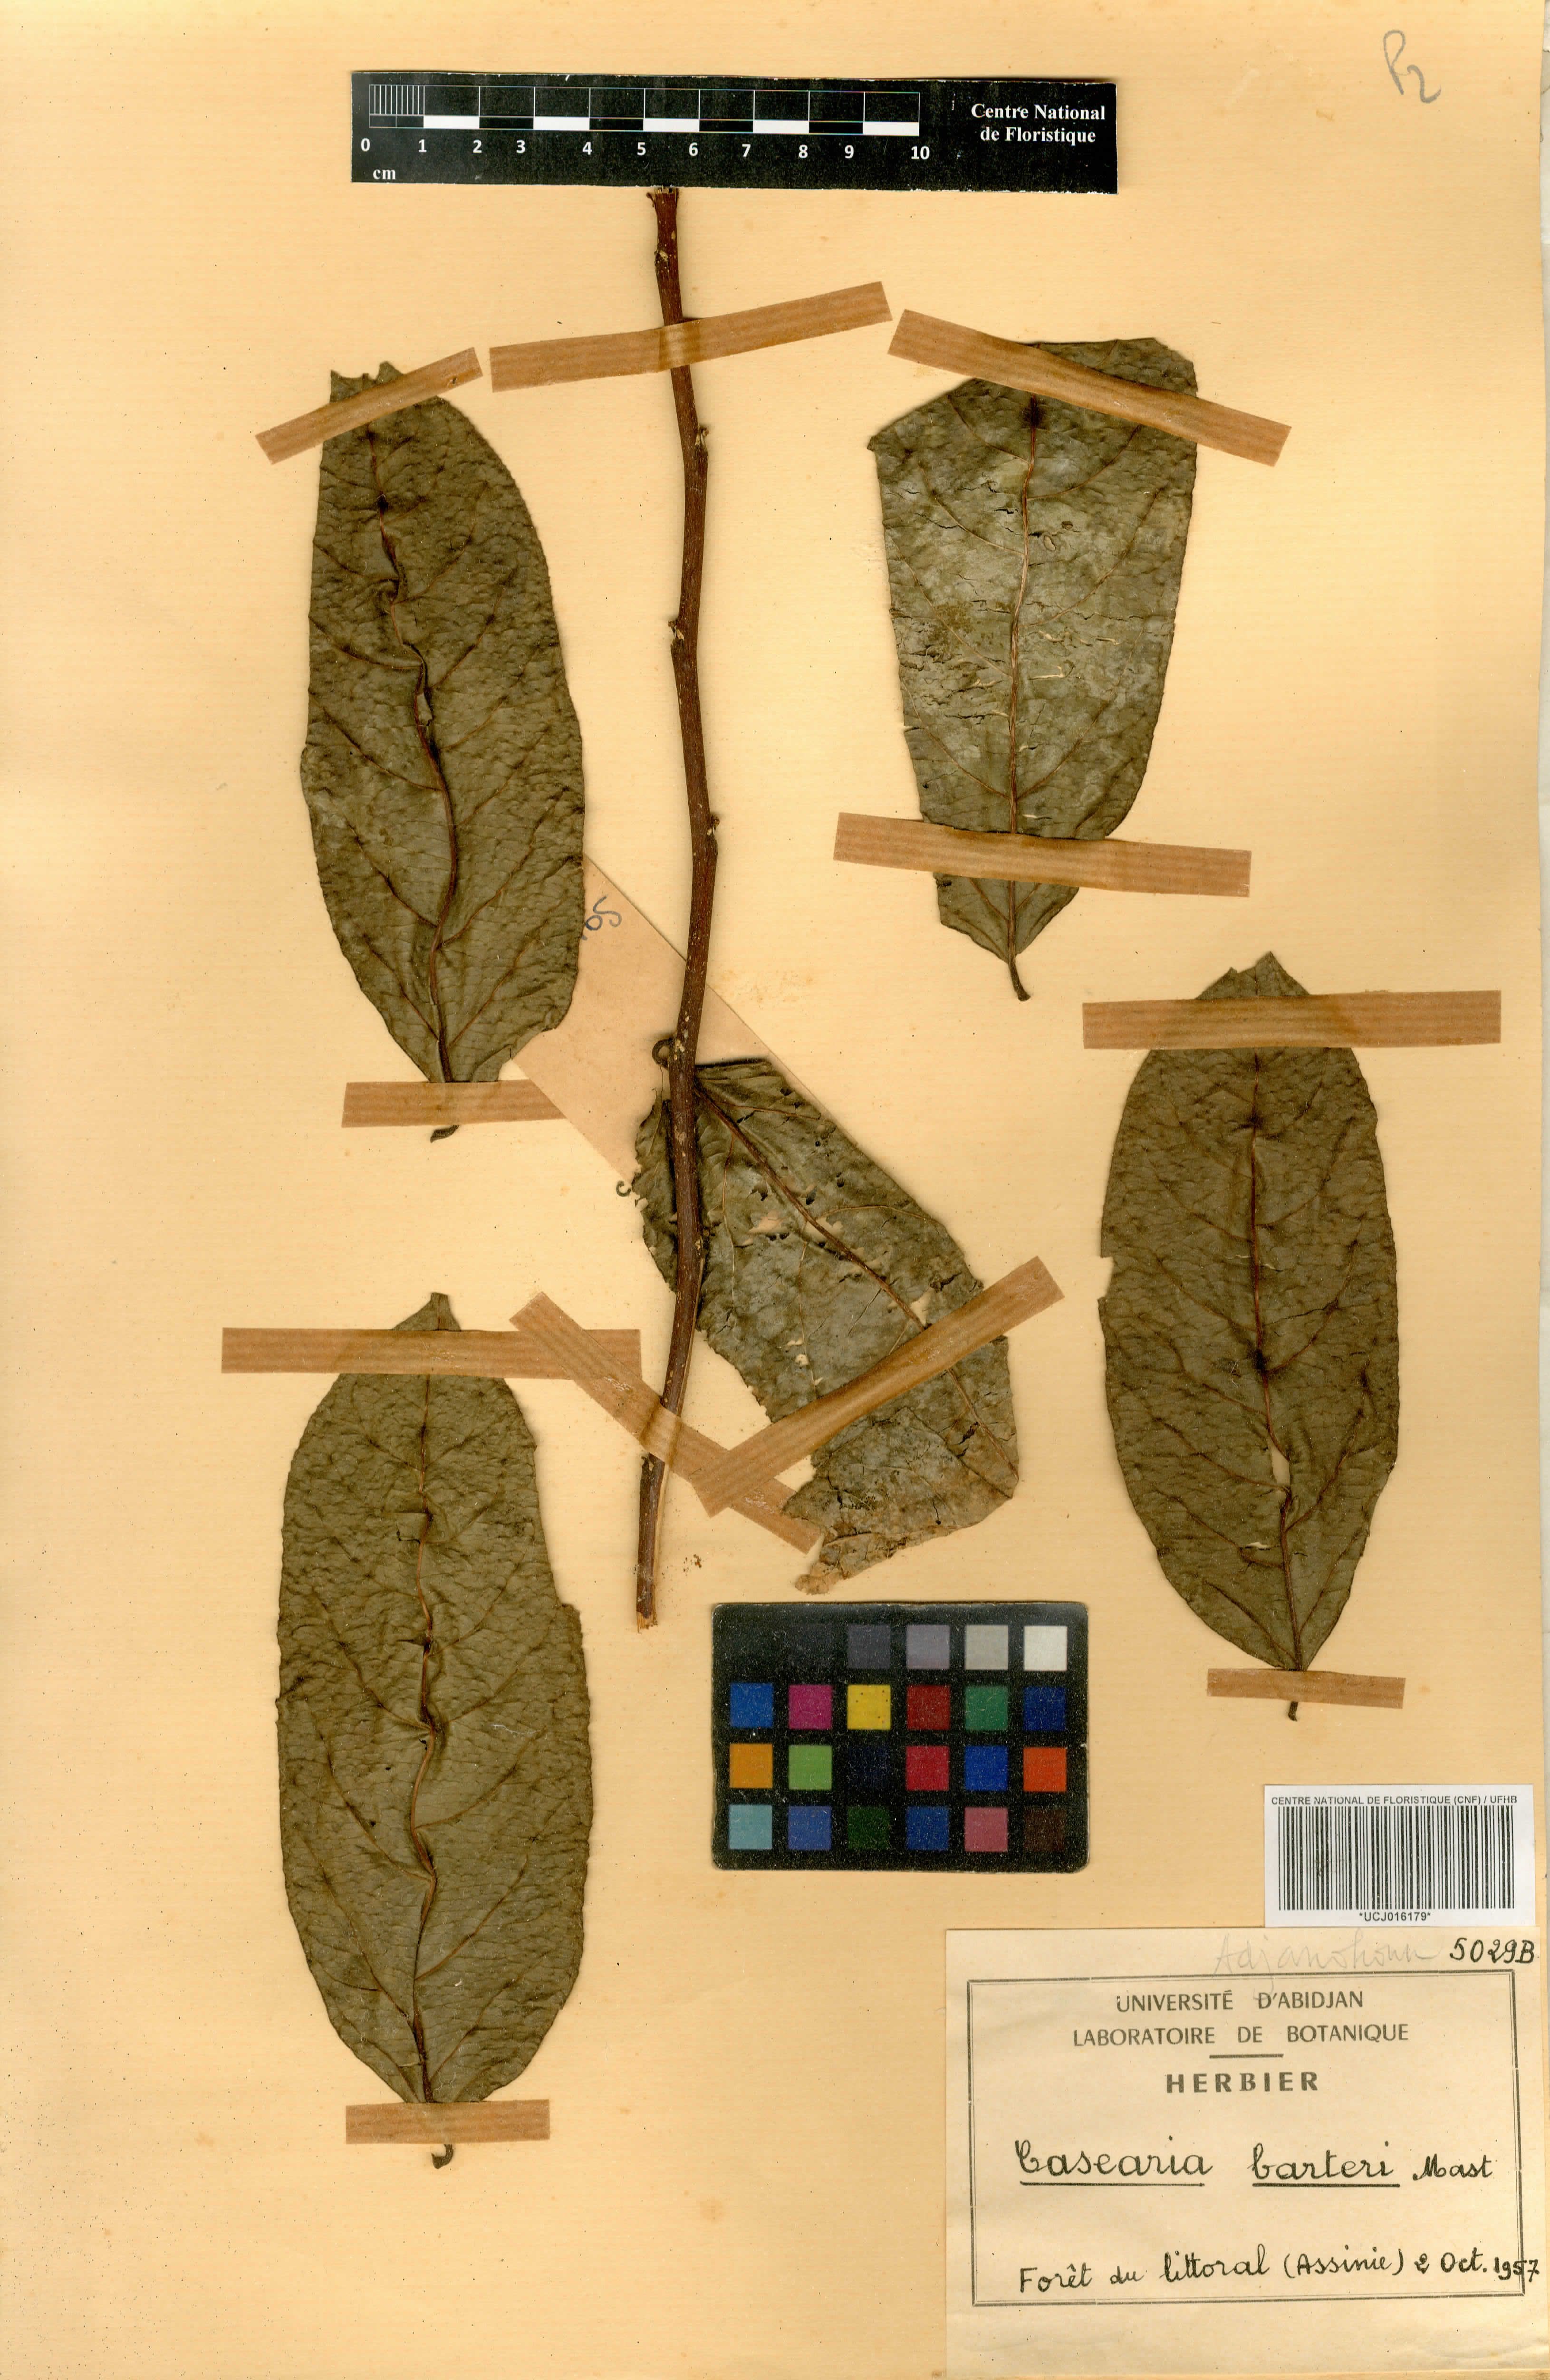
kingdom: Plantae
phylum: Tracheophyta
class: Magnoliopsida
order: Malpighiales
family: Salicaceae
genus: Casearia
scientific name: Casearia barteri
